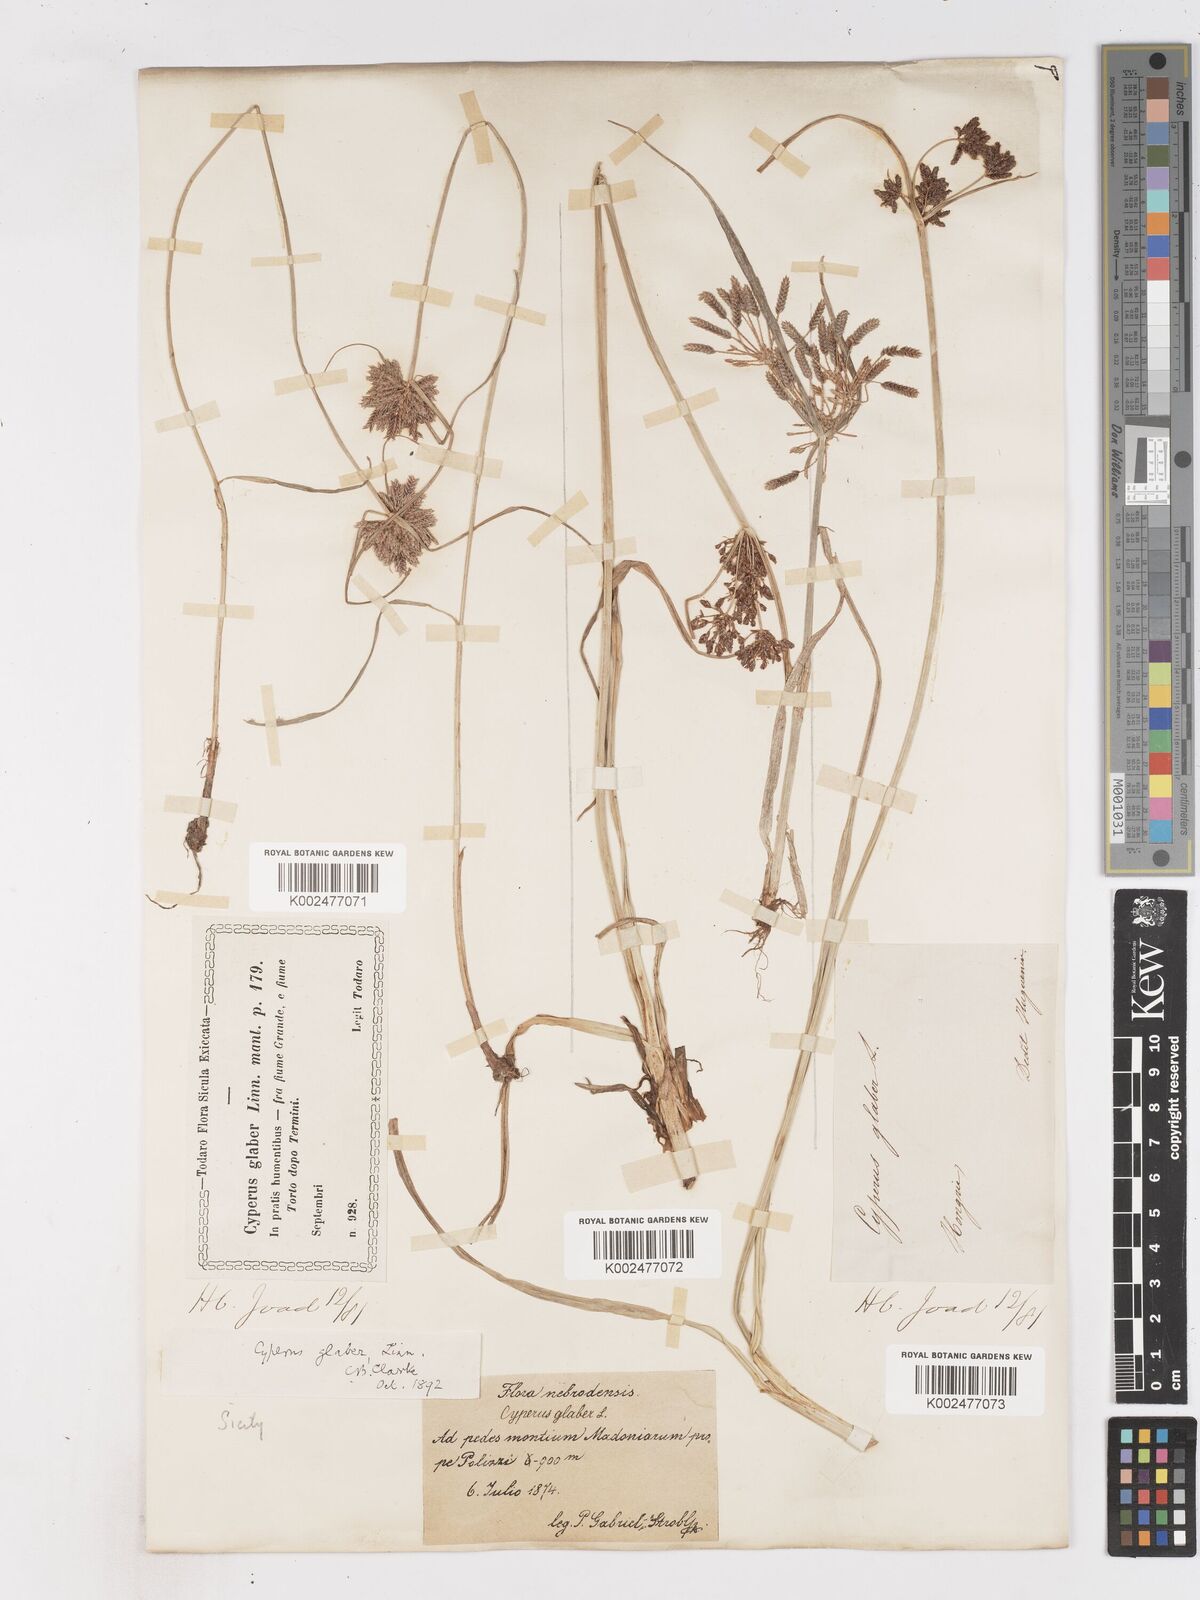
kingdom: Plantae
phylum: Tracheophyta
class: Liliopsida
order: Poales
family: Cyperaceae
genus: Cyperus
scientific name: Cyperus glaber
